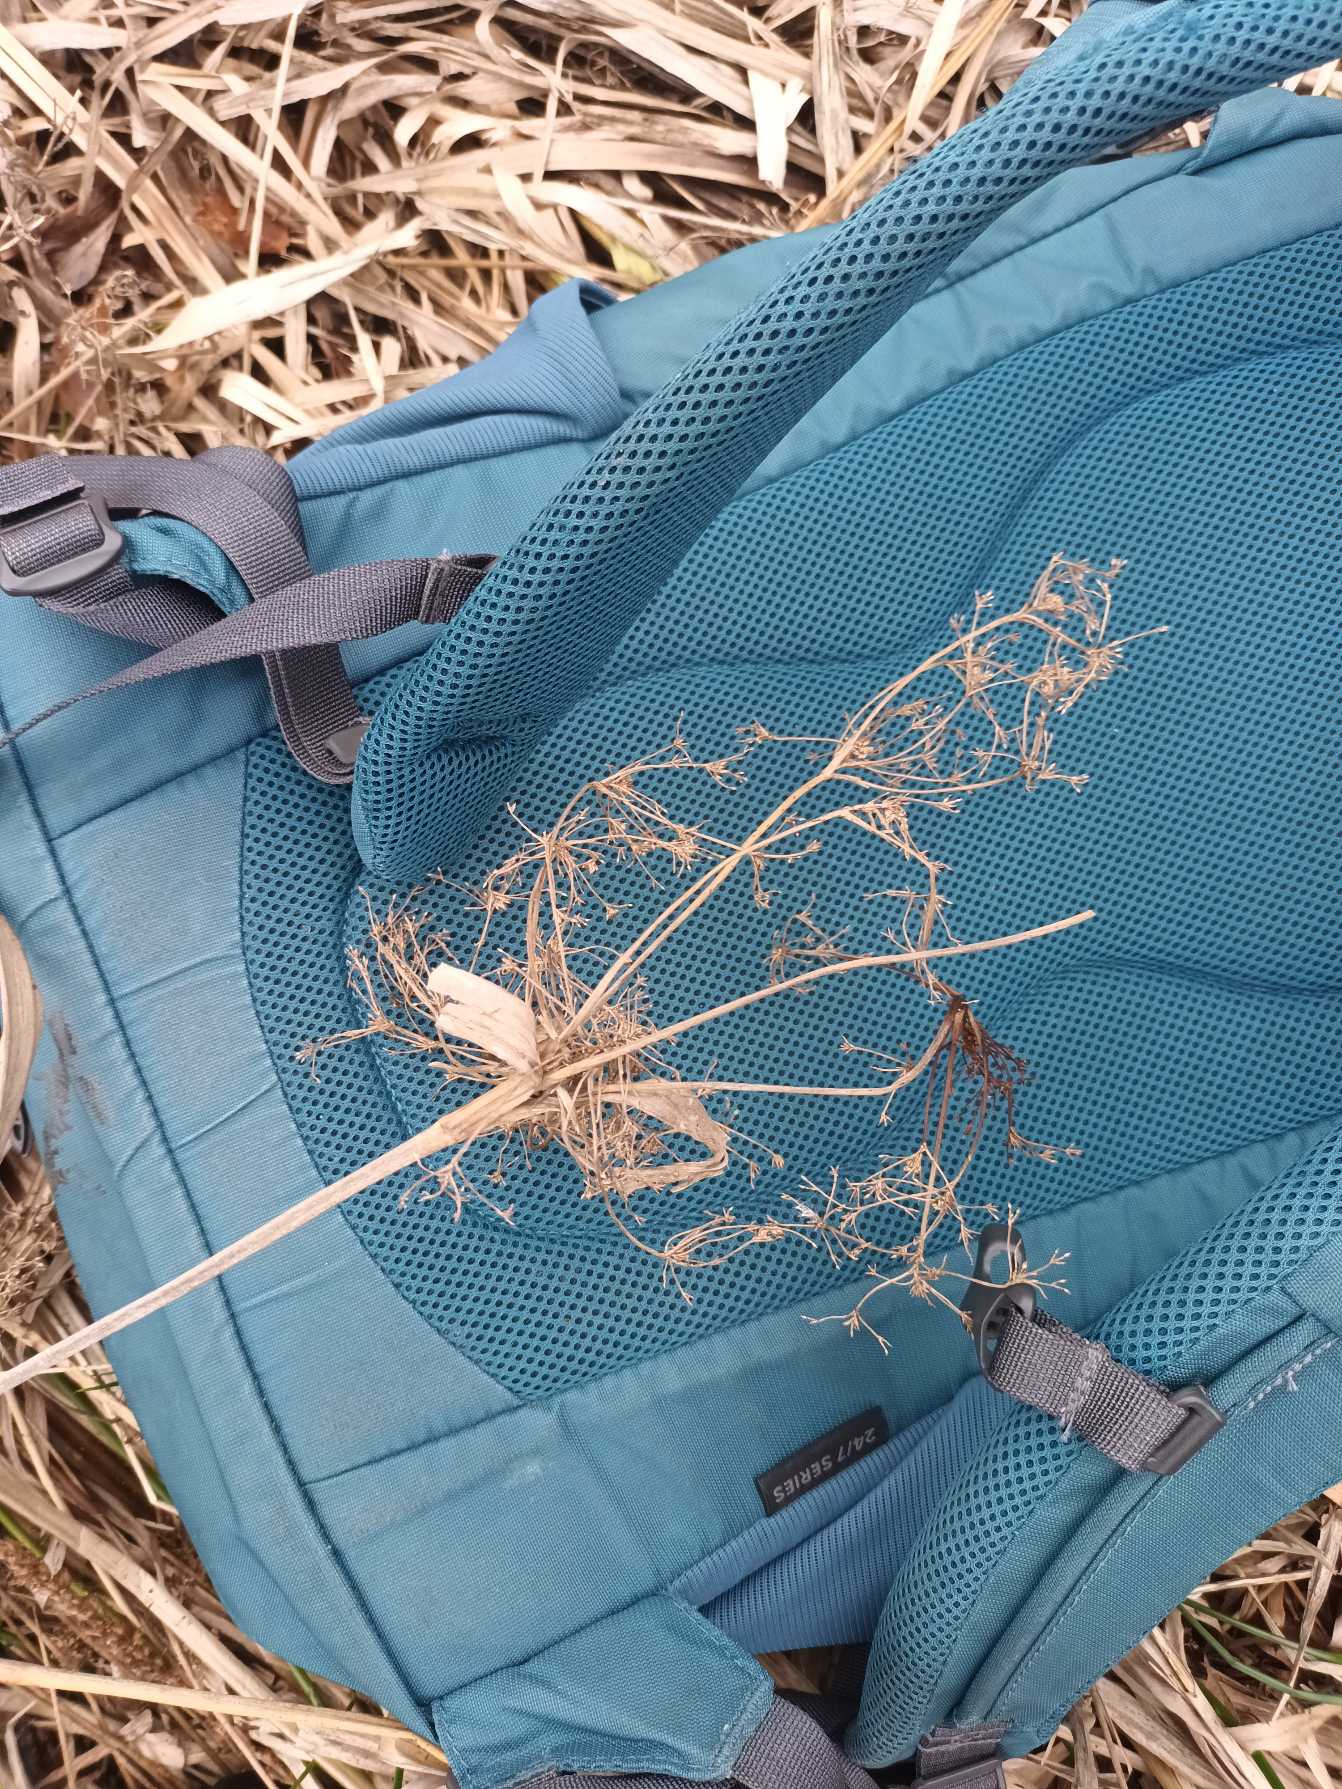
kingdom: Plantae
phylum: Tracheophyta
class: Liliopsida
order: Poales
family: Cyperaceae
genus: Scirpus
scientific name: Scirpus sylvaticus
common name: Skov-kogleaks
